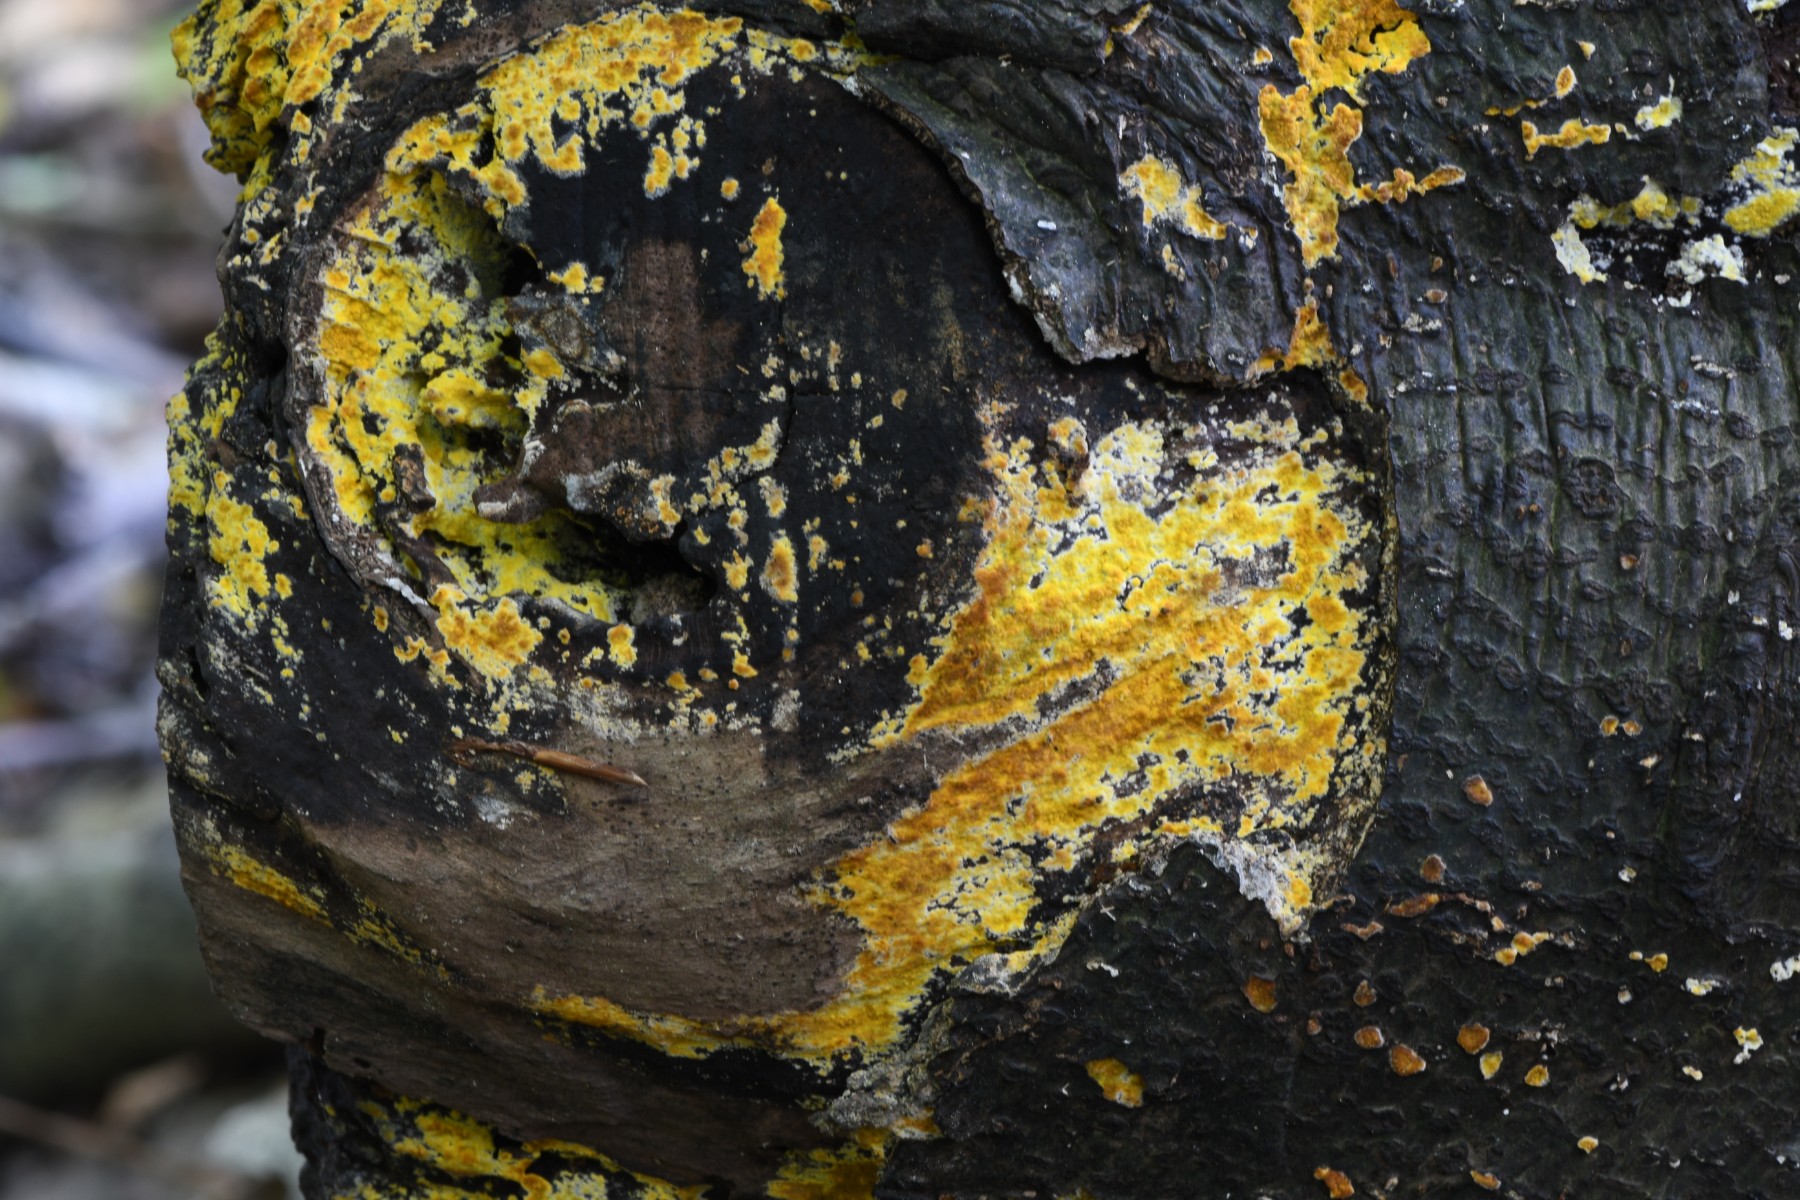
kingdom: Fungi
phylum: Basidiomycota
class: Agaricomycetes
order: Polyporales
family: Meruliaceae
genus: Phlebiodontia
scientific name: Phlebiodontia subochracea
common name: svovl-åresvamp
